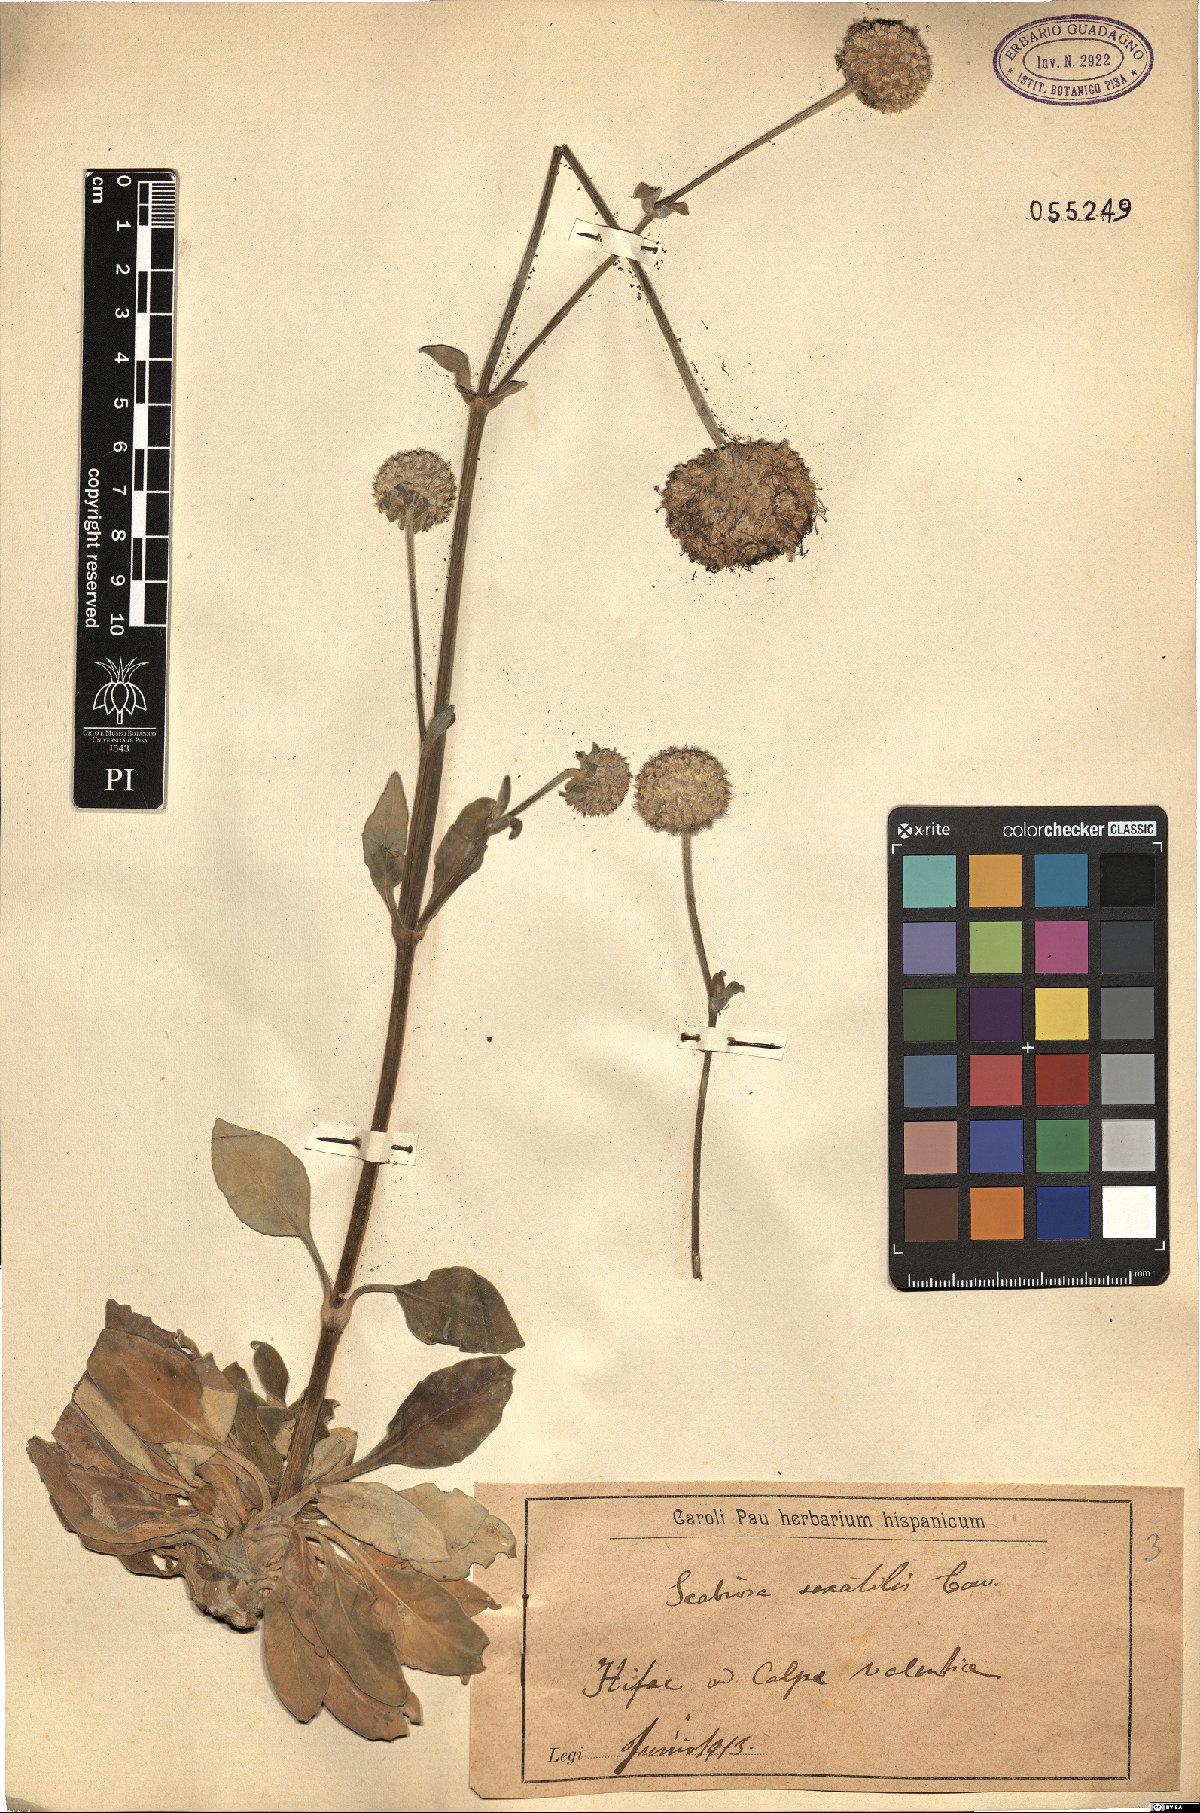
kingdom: Plantae
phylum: Tracheophyta
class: Magnoliopsida
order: Dipsacales
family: Caprifoliaceae
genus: Pseudoscabiosa
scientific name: Pseudoscabiosa saxatilis
